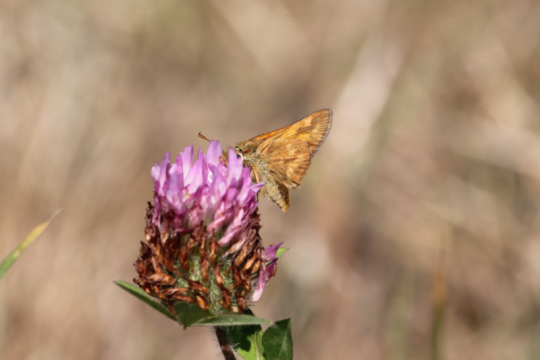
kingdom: Animalia
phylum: Arthropoda
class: Insecta
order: Lepidoptera
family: Hesperiidae
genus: Ochlodes
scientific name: Ochlodes sylvanoides
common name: Woodland Skipper
